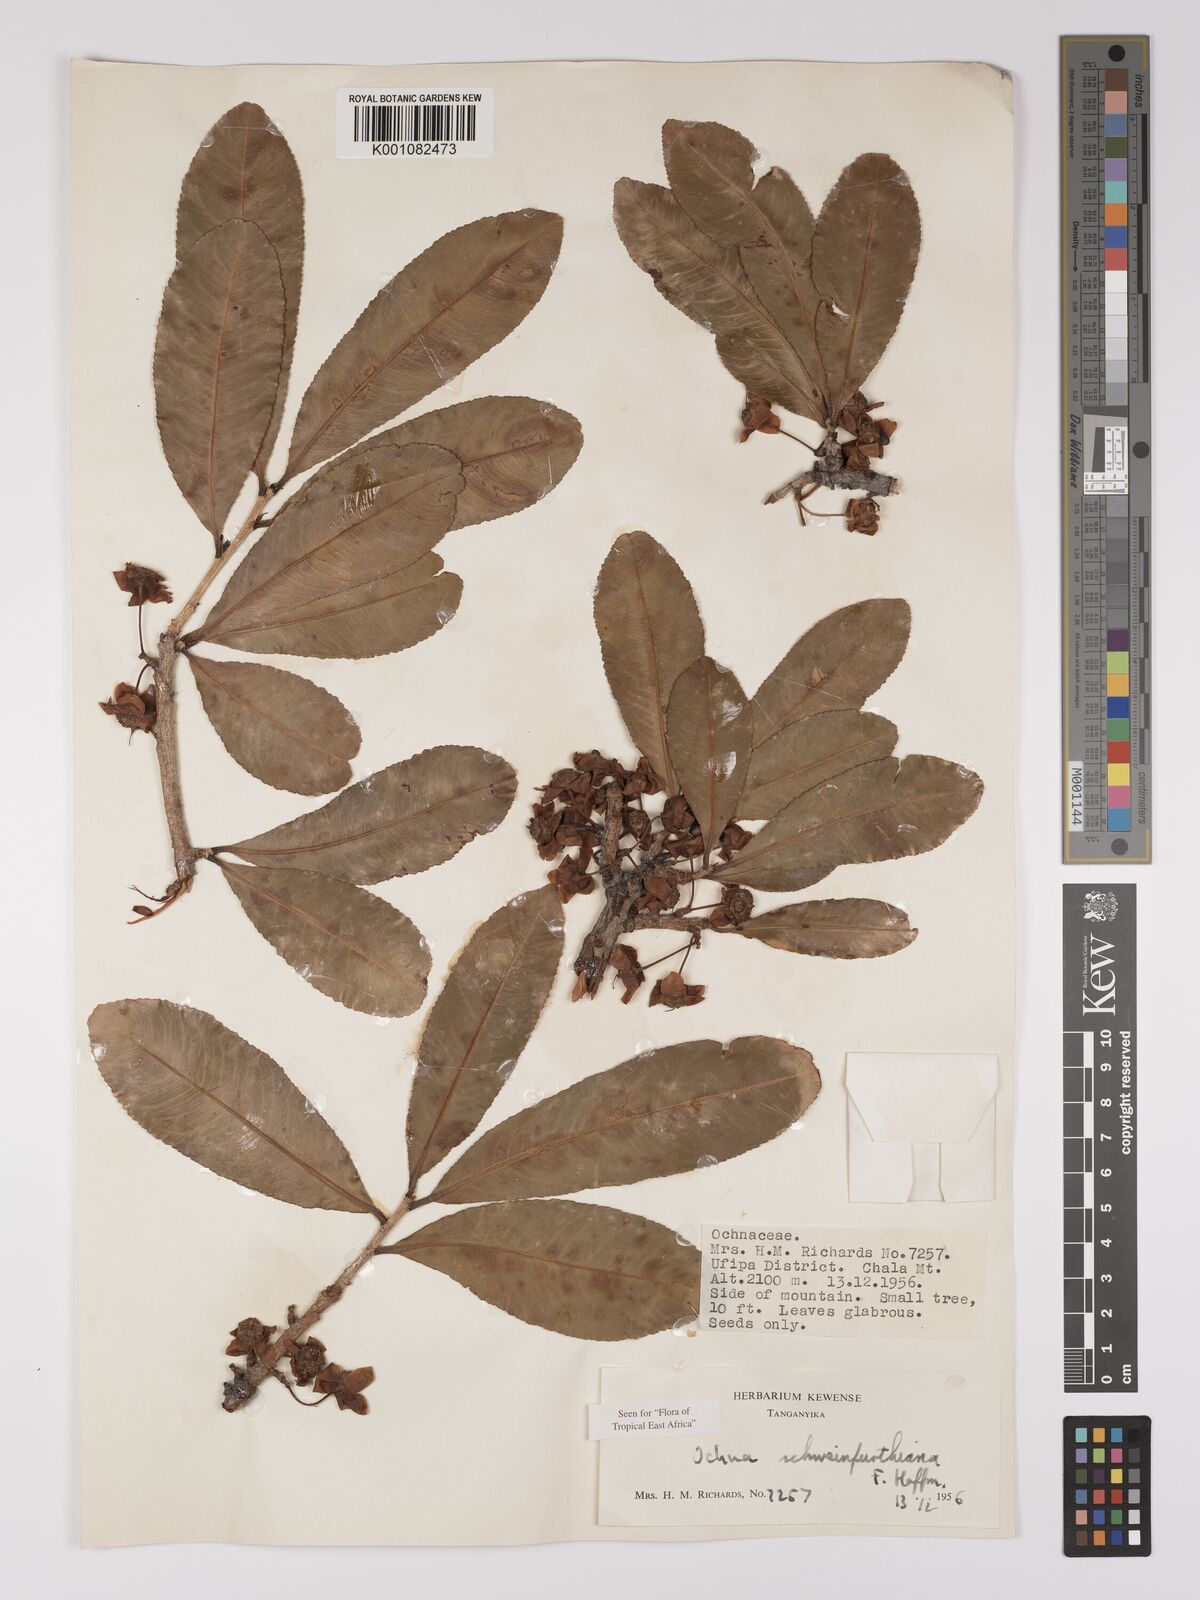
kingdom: Plantae
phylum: Tracheophyta
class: Magnoliopsida
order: Malpighiales
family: Ochnaceae
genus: Ochna
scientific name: Ochna schweinfurthiana
